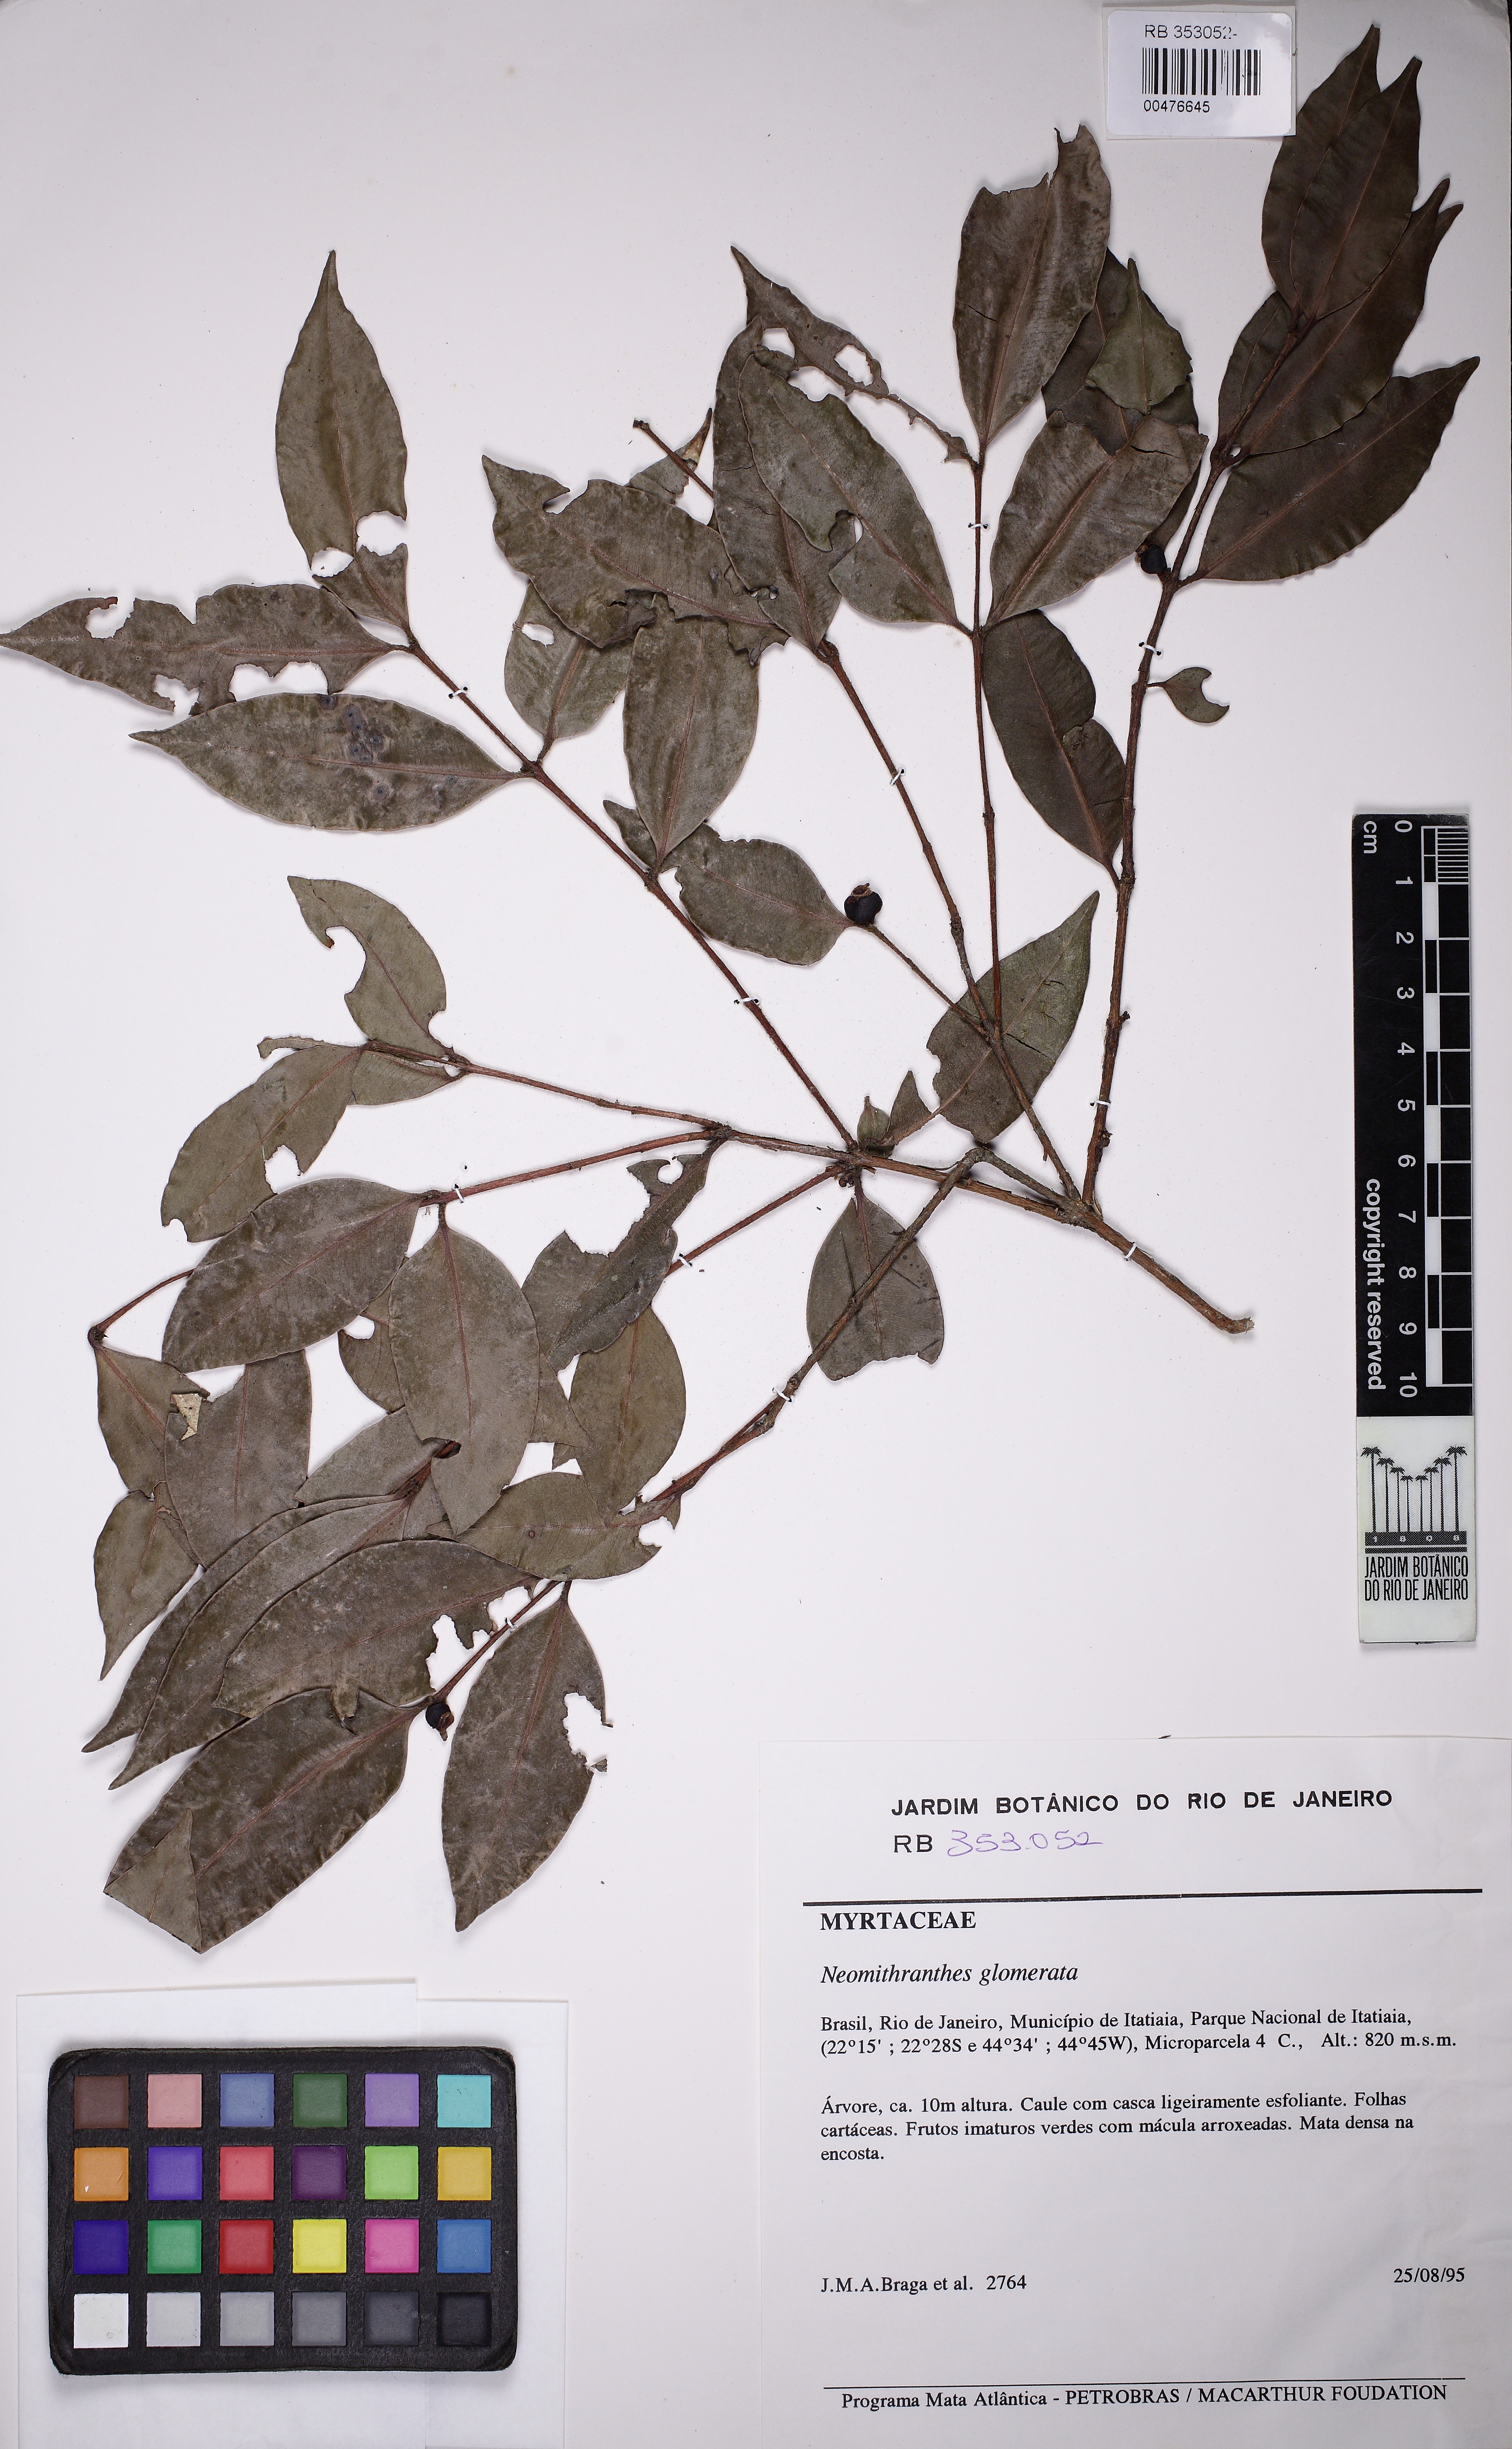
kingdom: Plantae
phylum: Tracheophyta
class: Magnoliopsida
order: Myrtales
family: Myrtaceae
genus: Neomitranthes
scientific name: Neomitranthes glomerata
